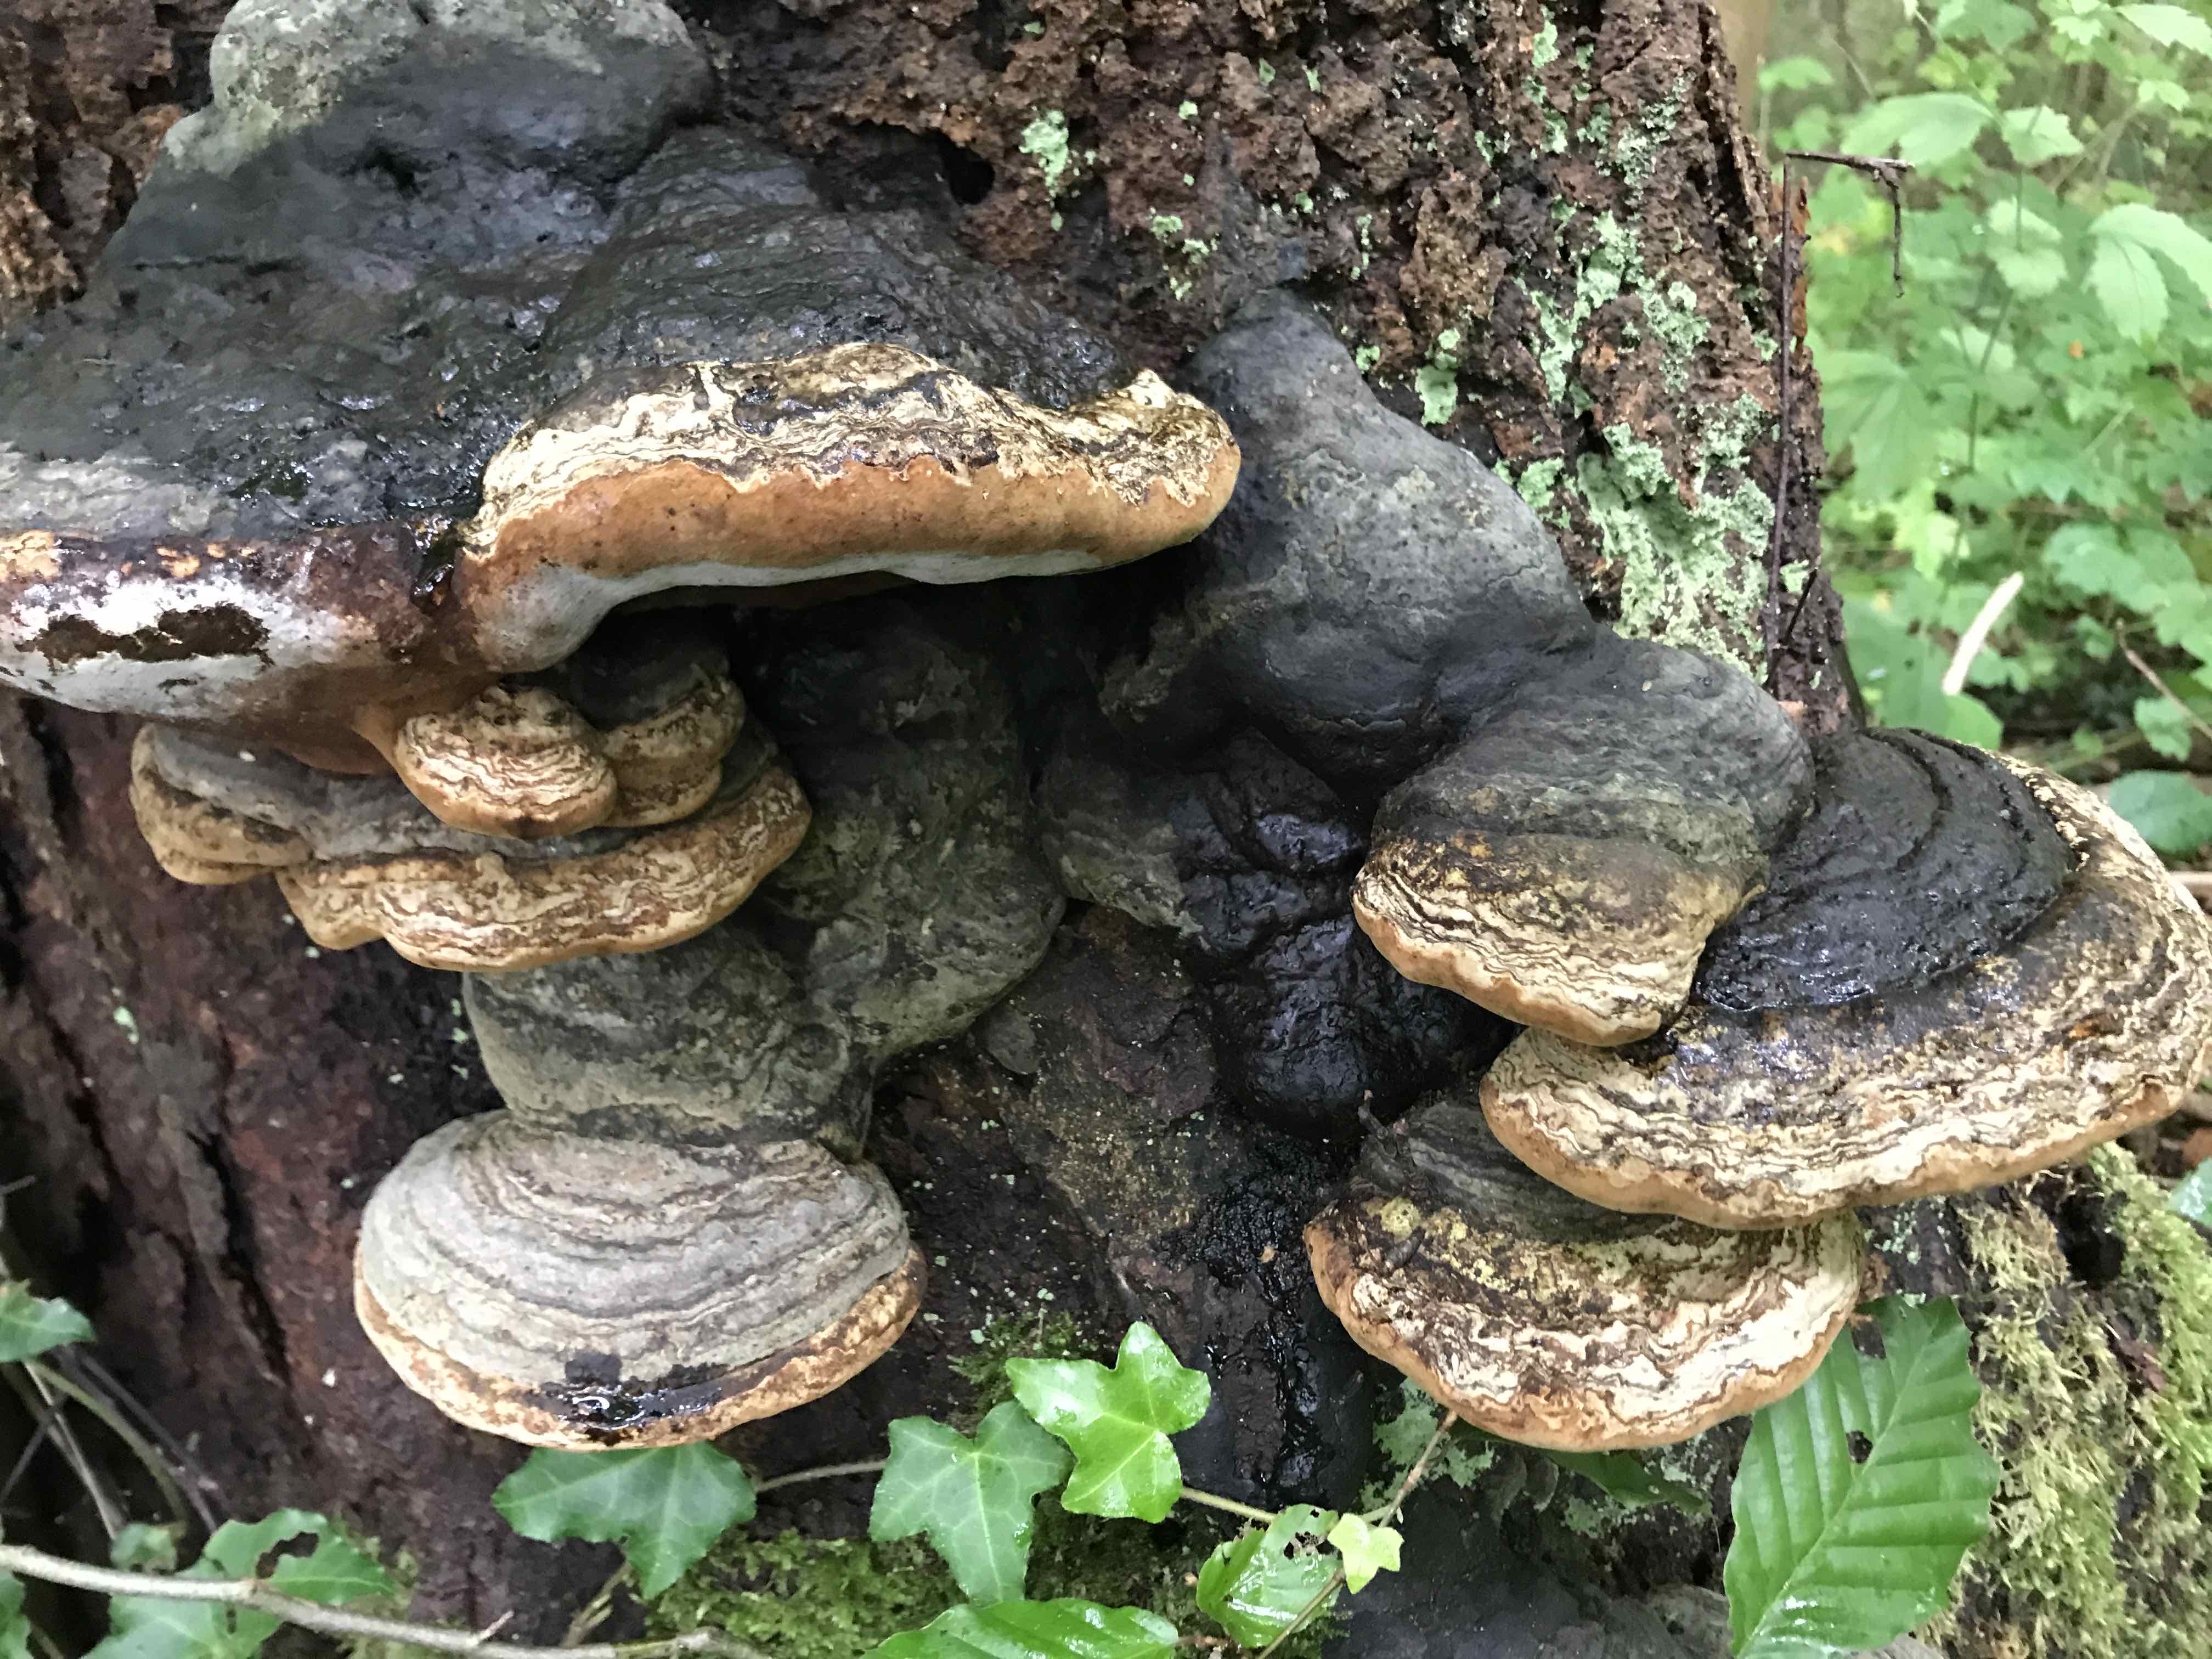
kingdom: Fungi
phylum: Basidiomycota
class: Agaricomycetes
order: Polyporales
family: Polyporaceae
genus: Fomes
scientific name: Fomes fomentarius
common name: tøndersvamp
